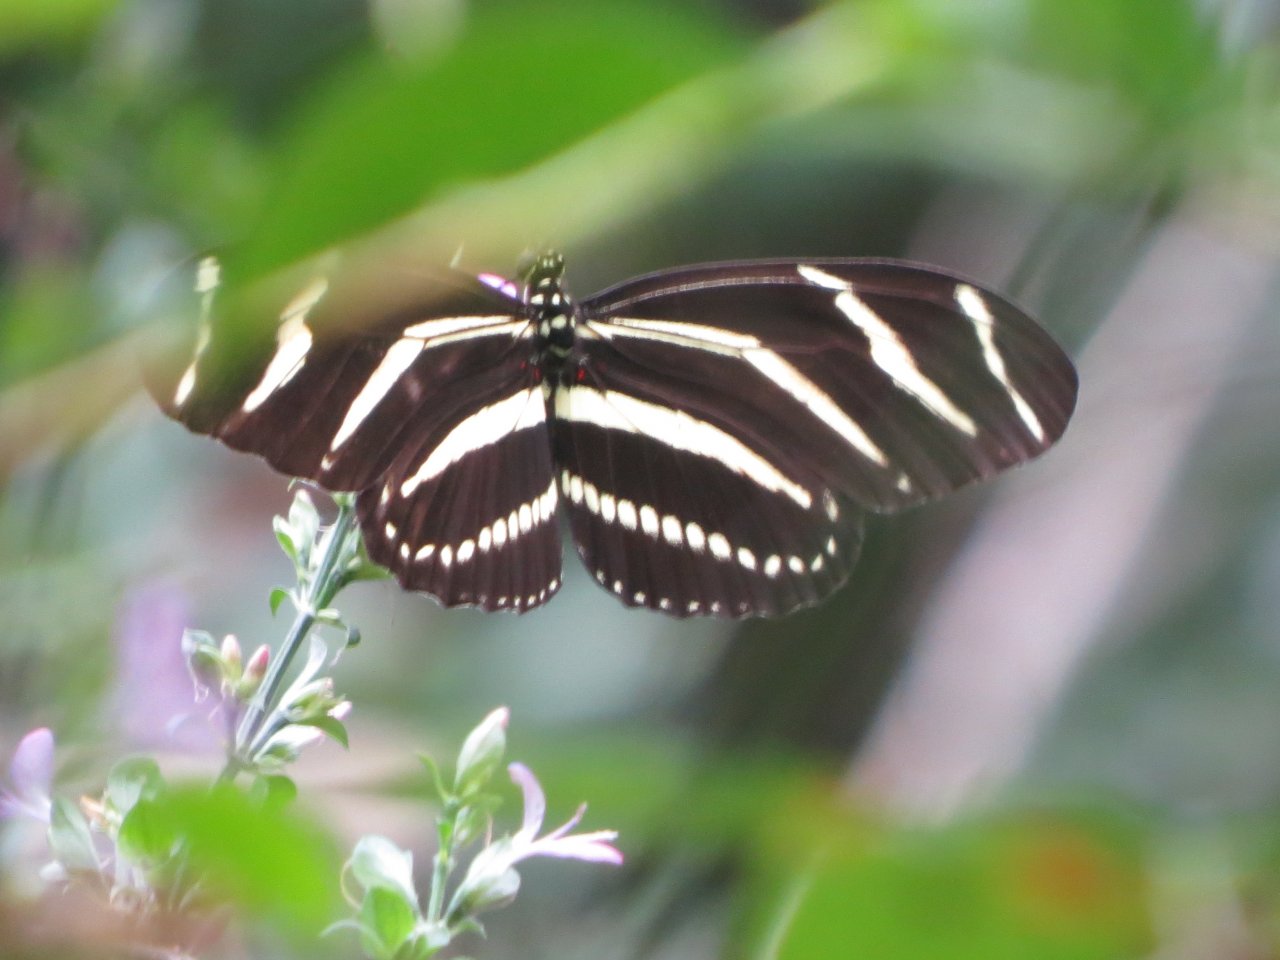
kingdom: Animalia
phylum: Arthropoda
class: Insecta
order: Lepidoptera
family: Nymphalidae
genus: Heliconius
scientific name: Heliconius charithonia
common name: Zebra Longwing
